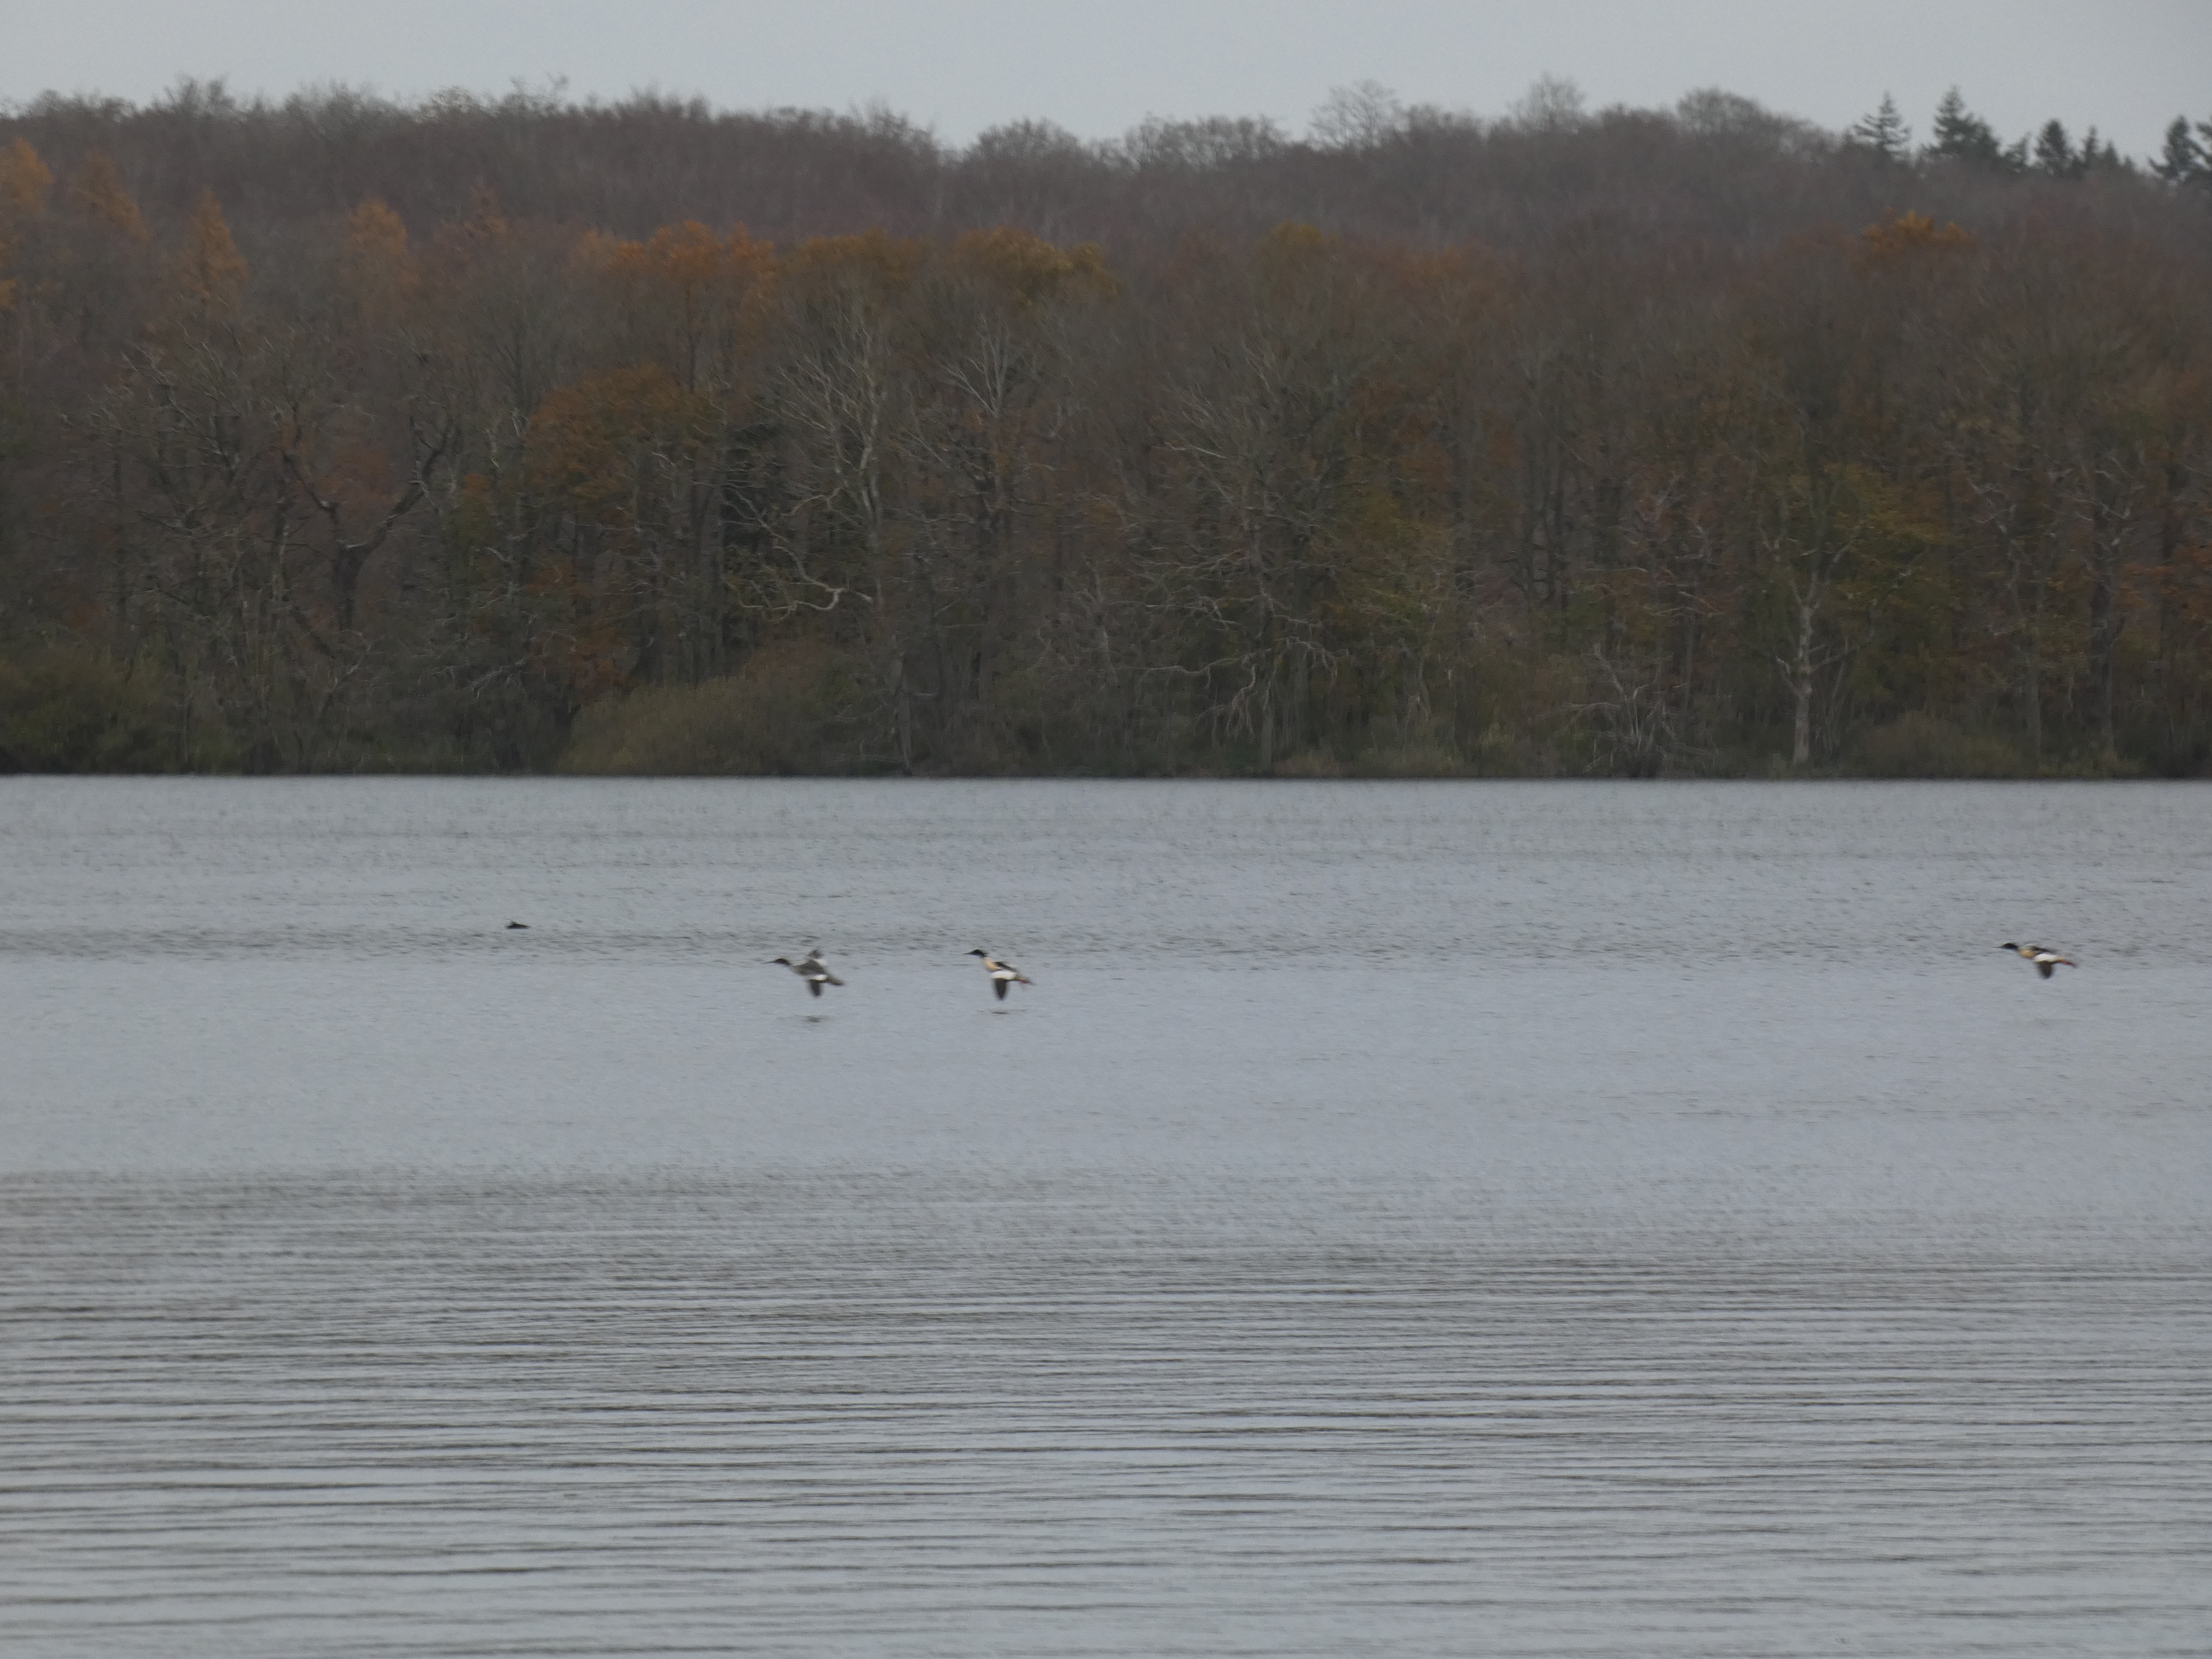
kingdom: Animalia
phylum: Chordata
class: Aves
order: Anseriformes
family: Anatidae
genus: Mergus
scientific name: Mergus merganser
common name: Stor skallesluger
